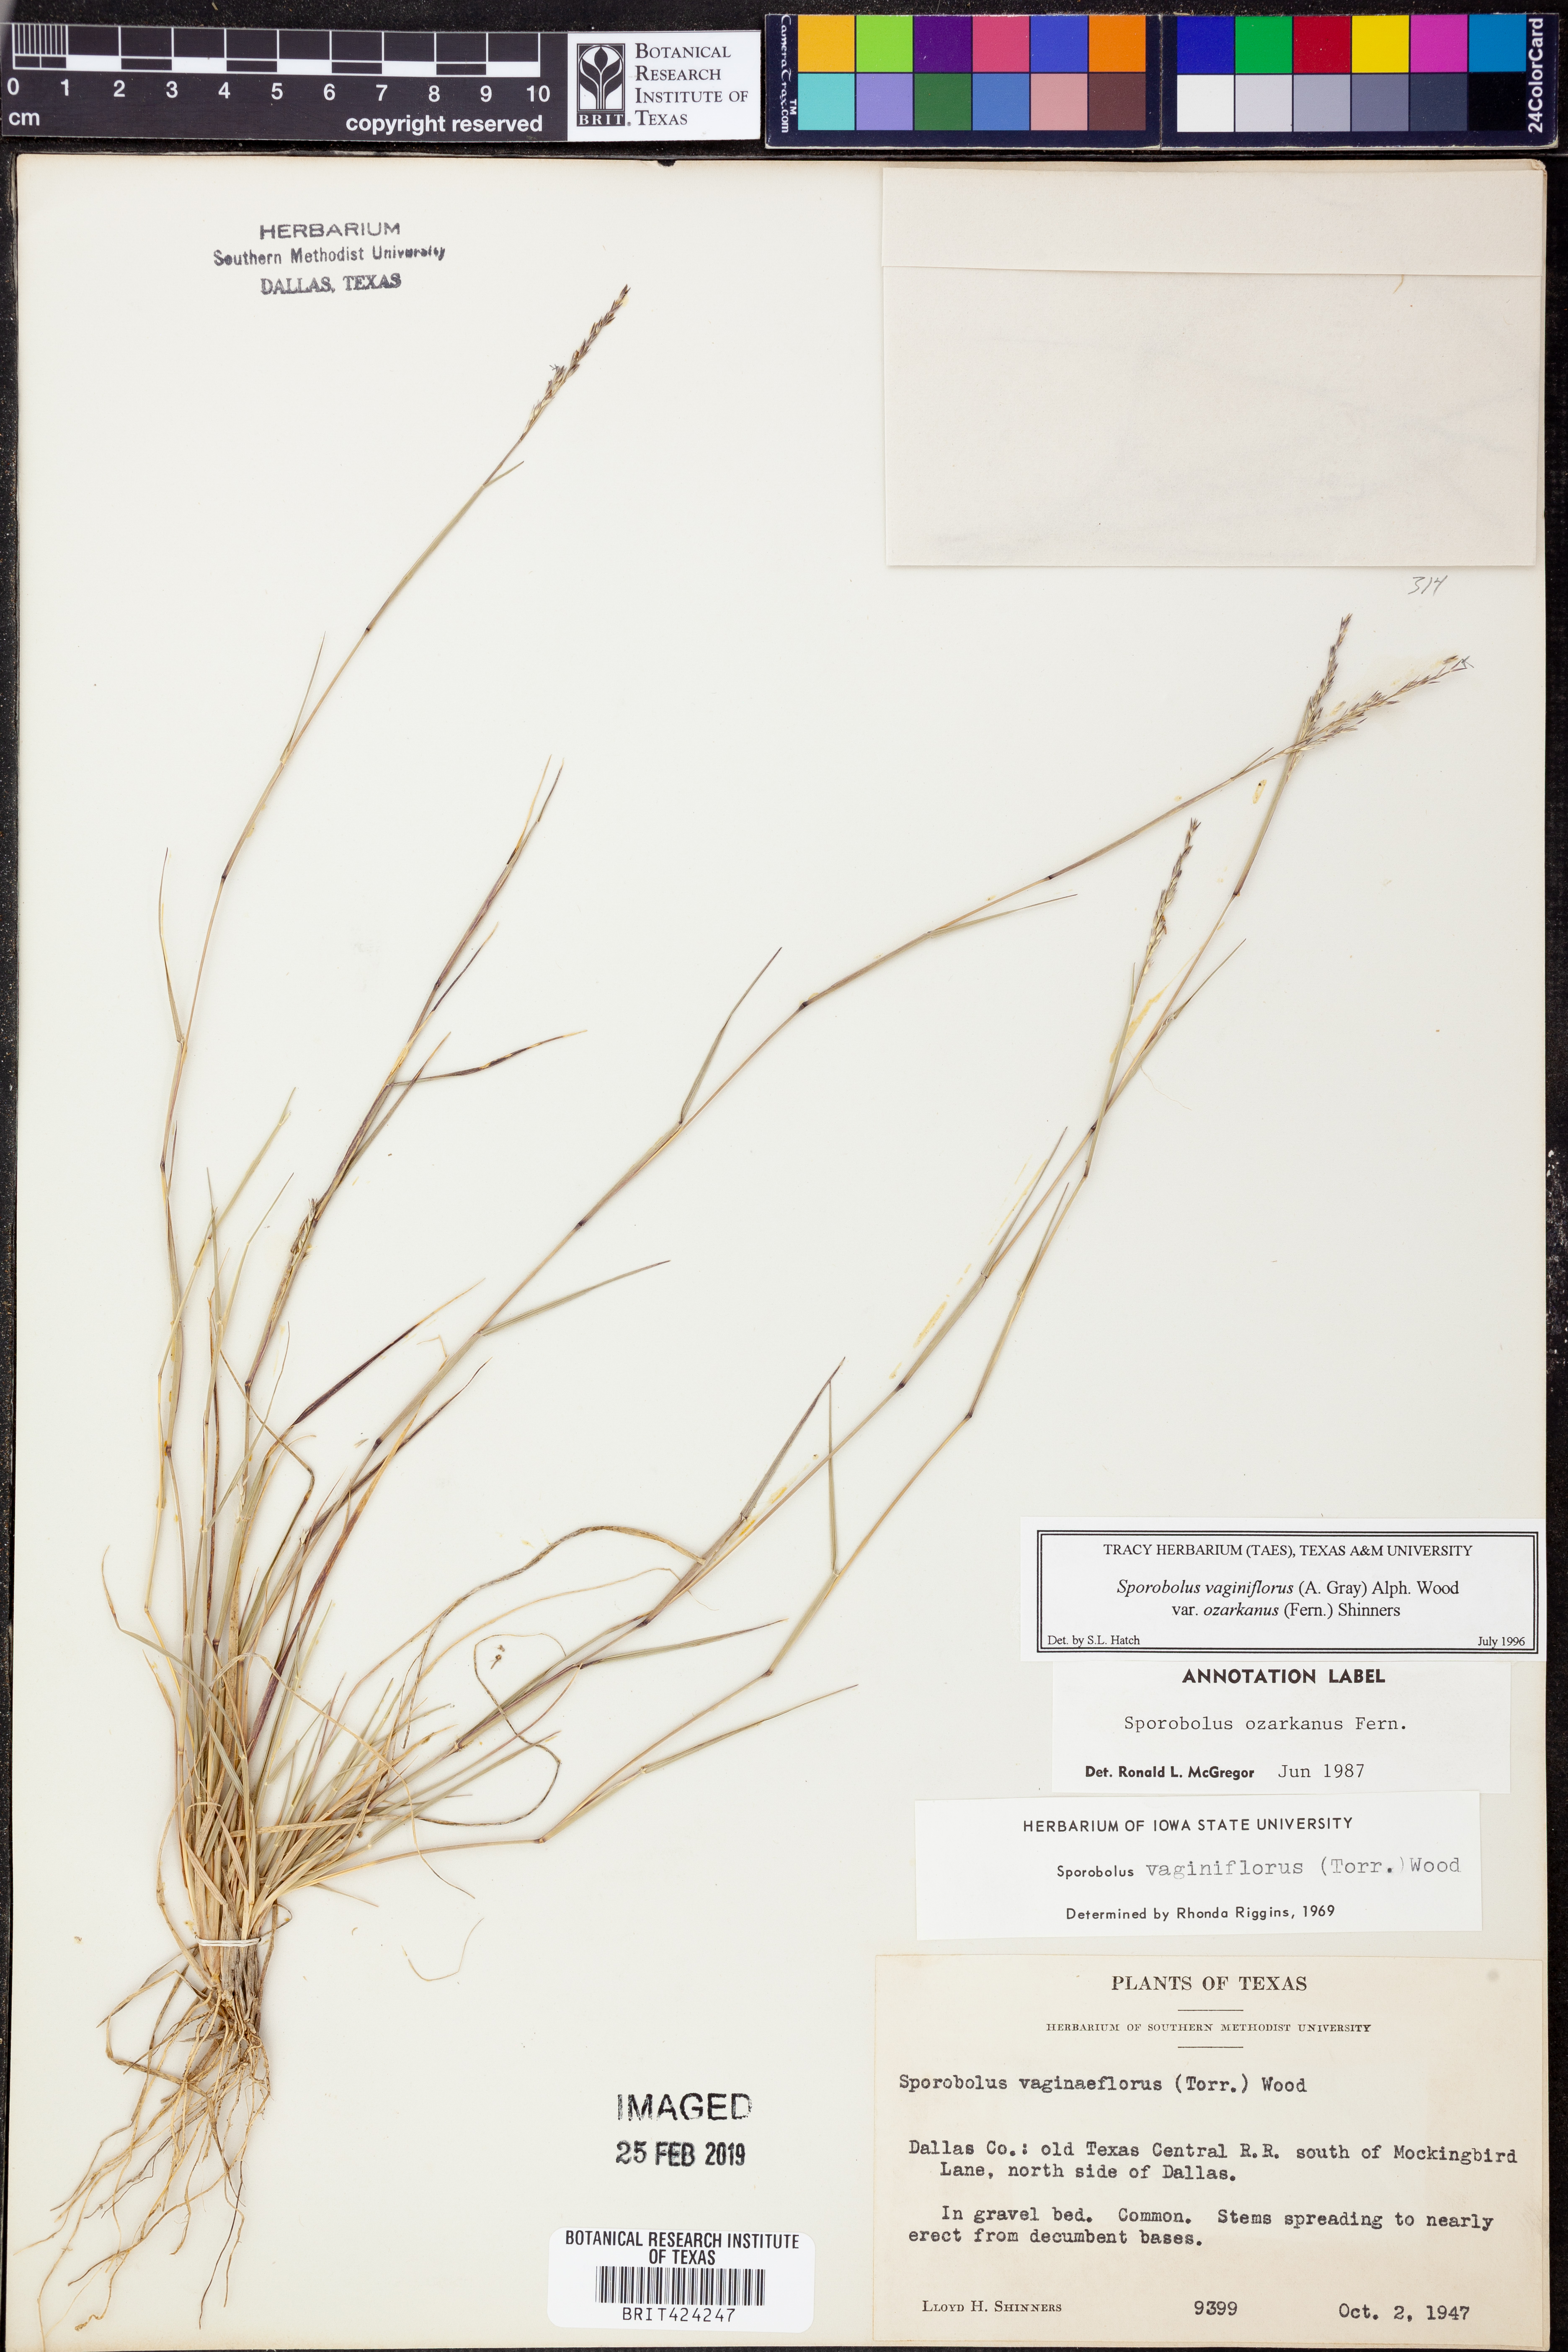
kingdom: Plantae
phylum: Tracheophyta
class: Liliopsida
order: Poales
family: Poaceae
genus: Sporobolus
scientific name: Sporobolus neglectus
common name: Annual dropseed
